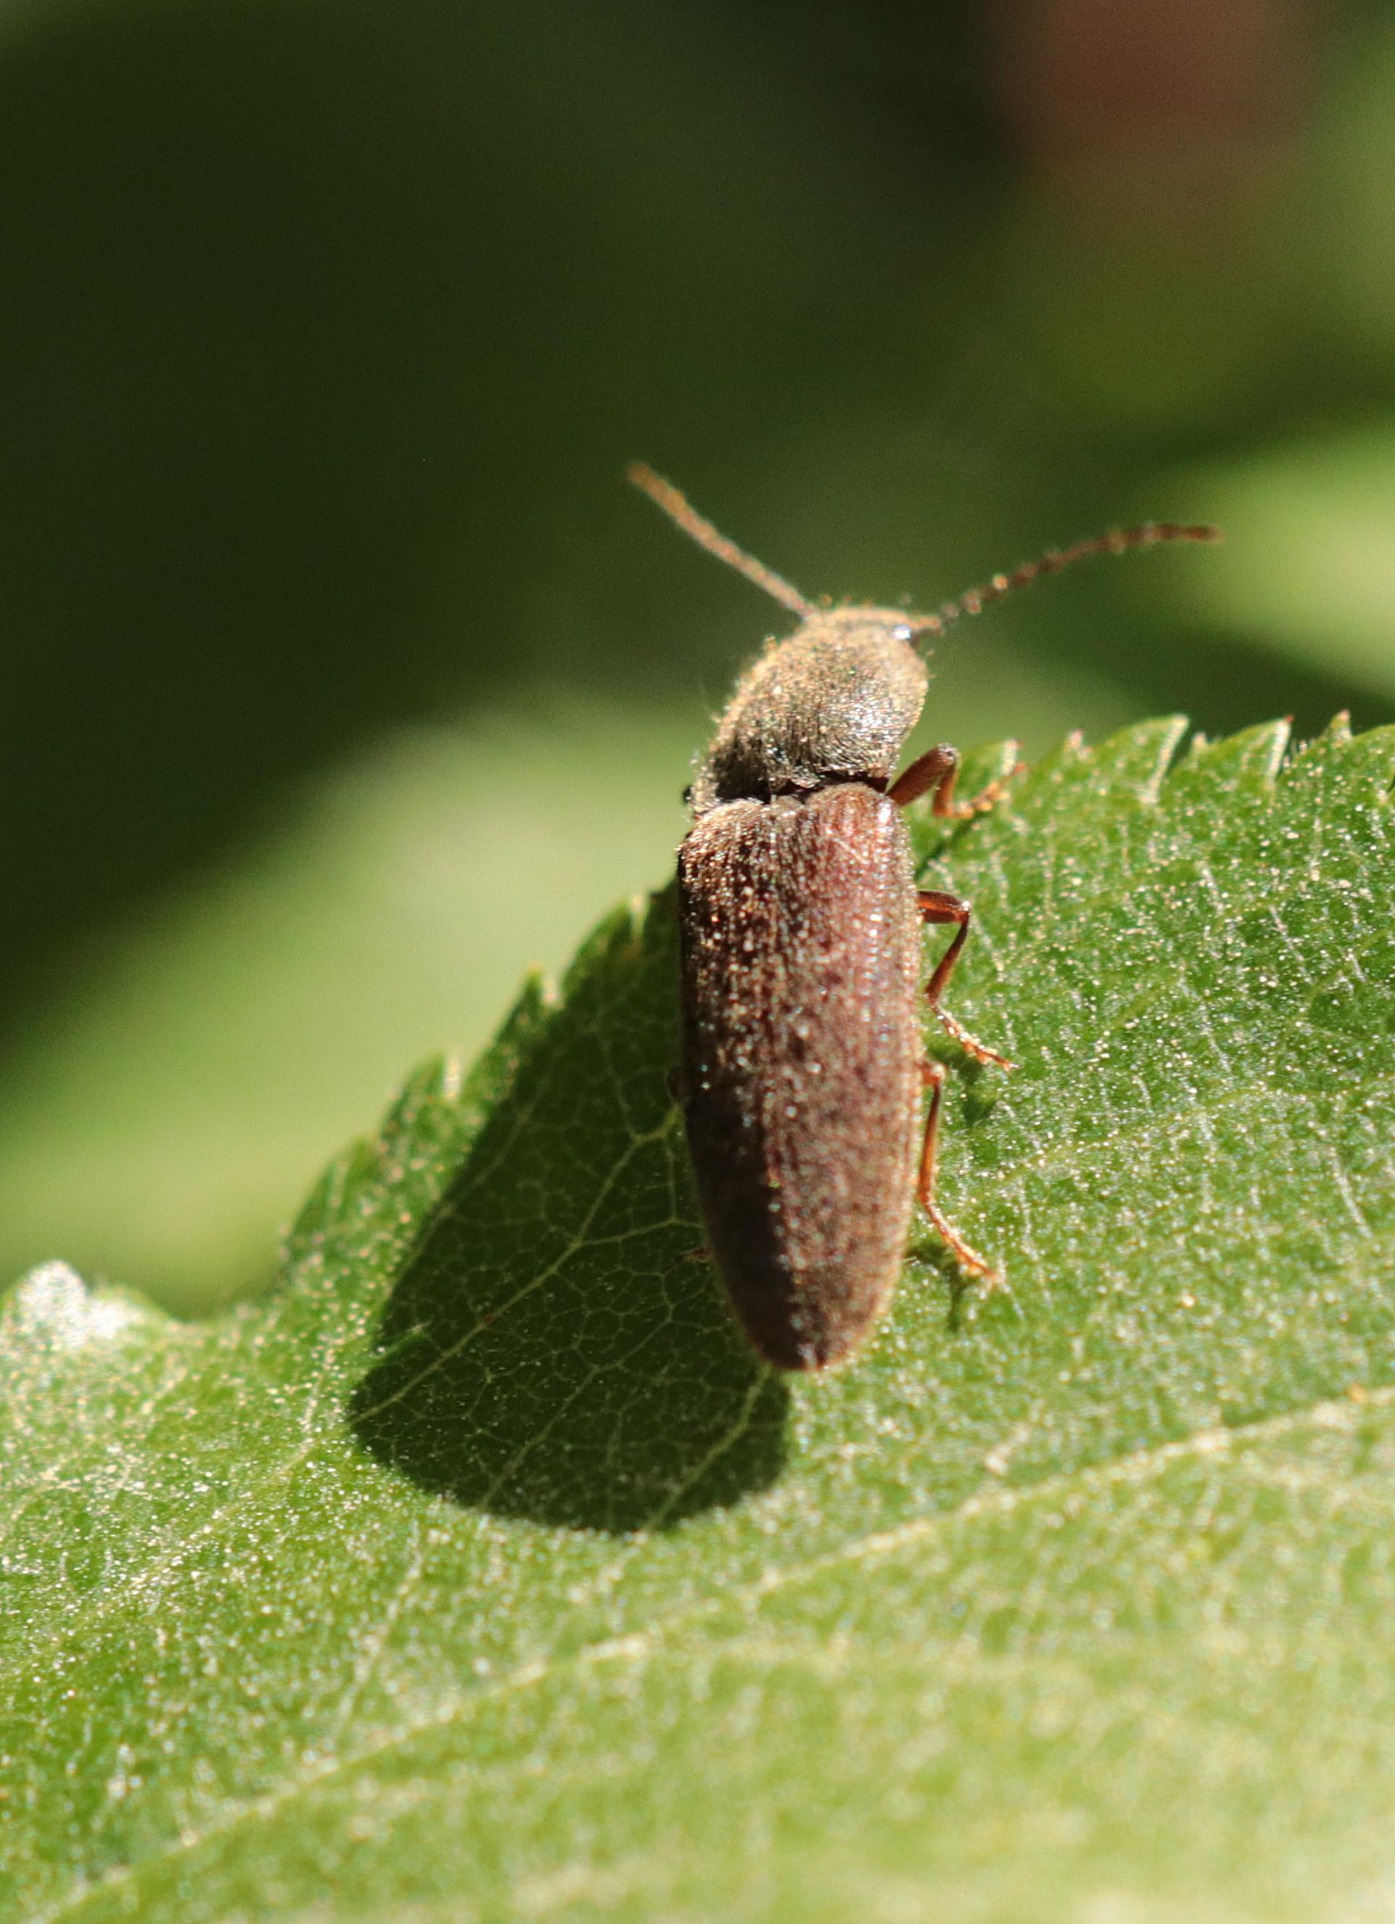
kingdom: Animalia
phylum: Arthropoda
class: Insecta
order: Coleoptera
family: Elateridae
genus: Athous
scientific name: Athous haemorrhoidalis
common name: Rødhalet busksmælder
